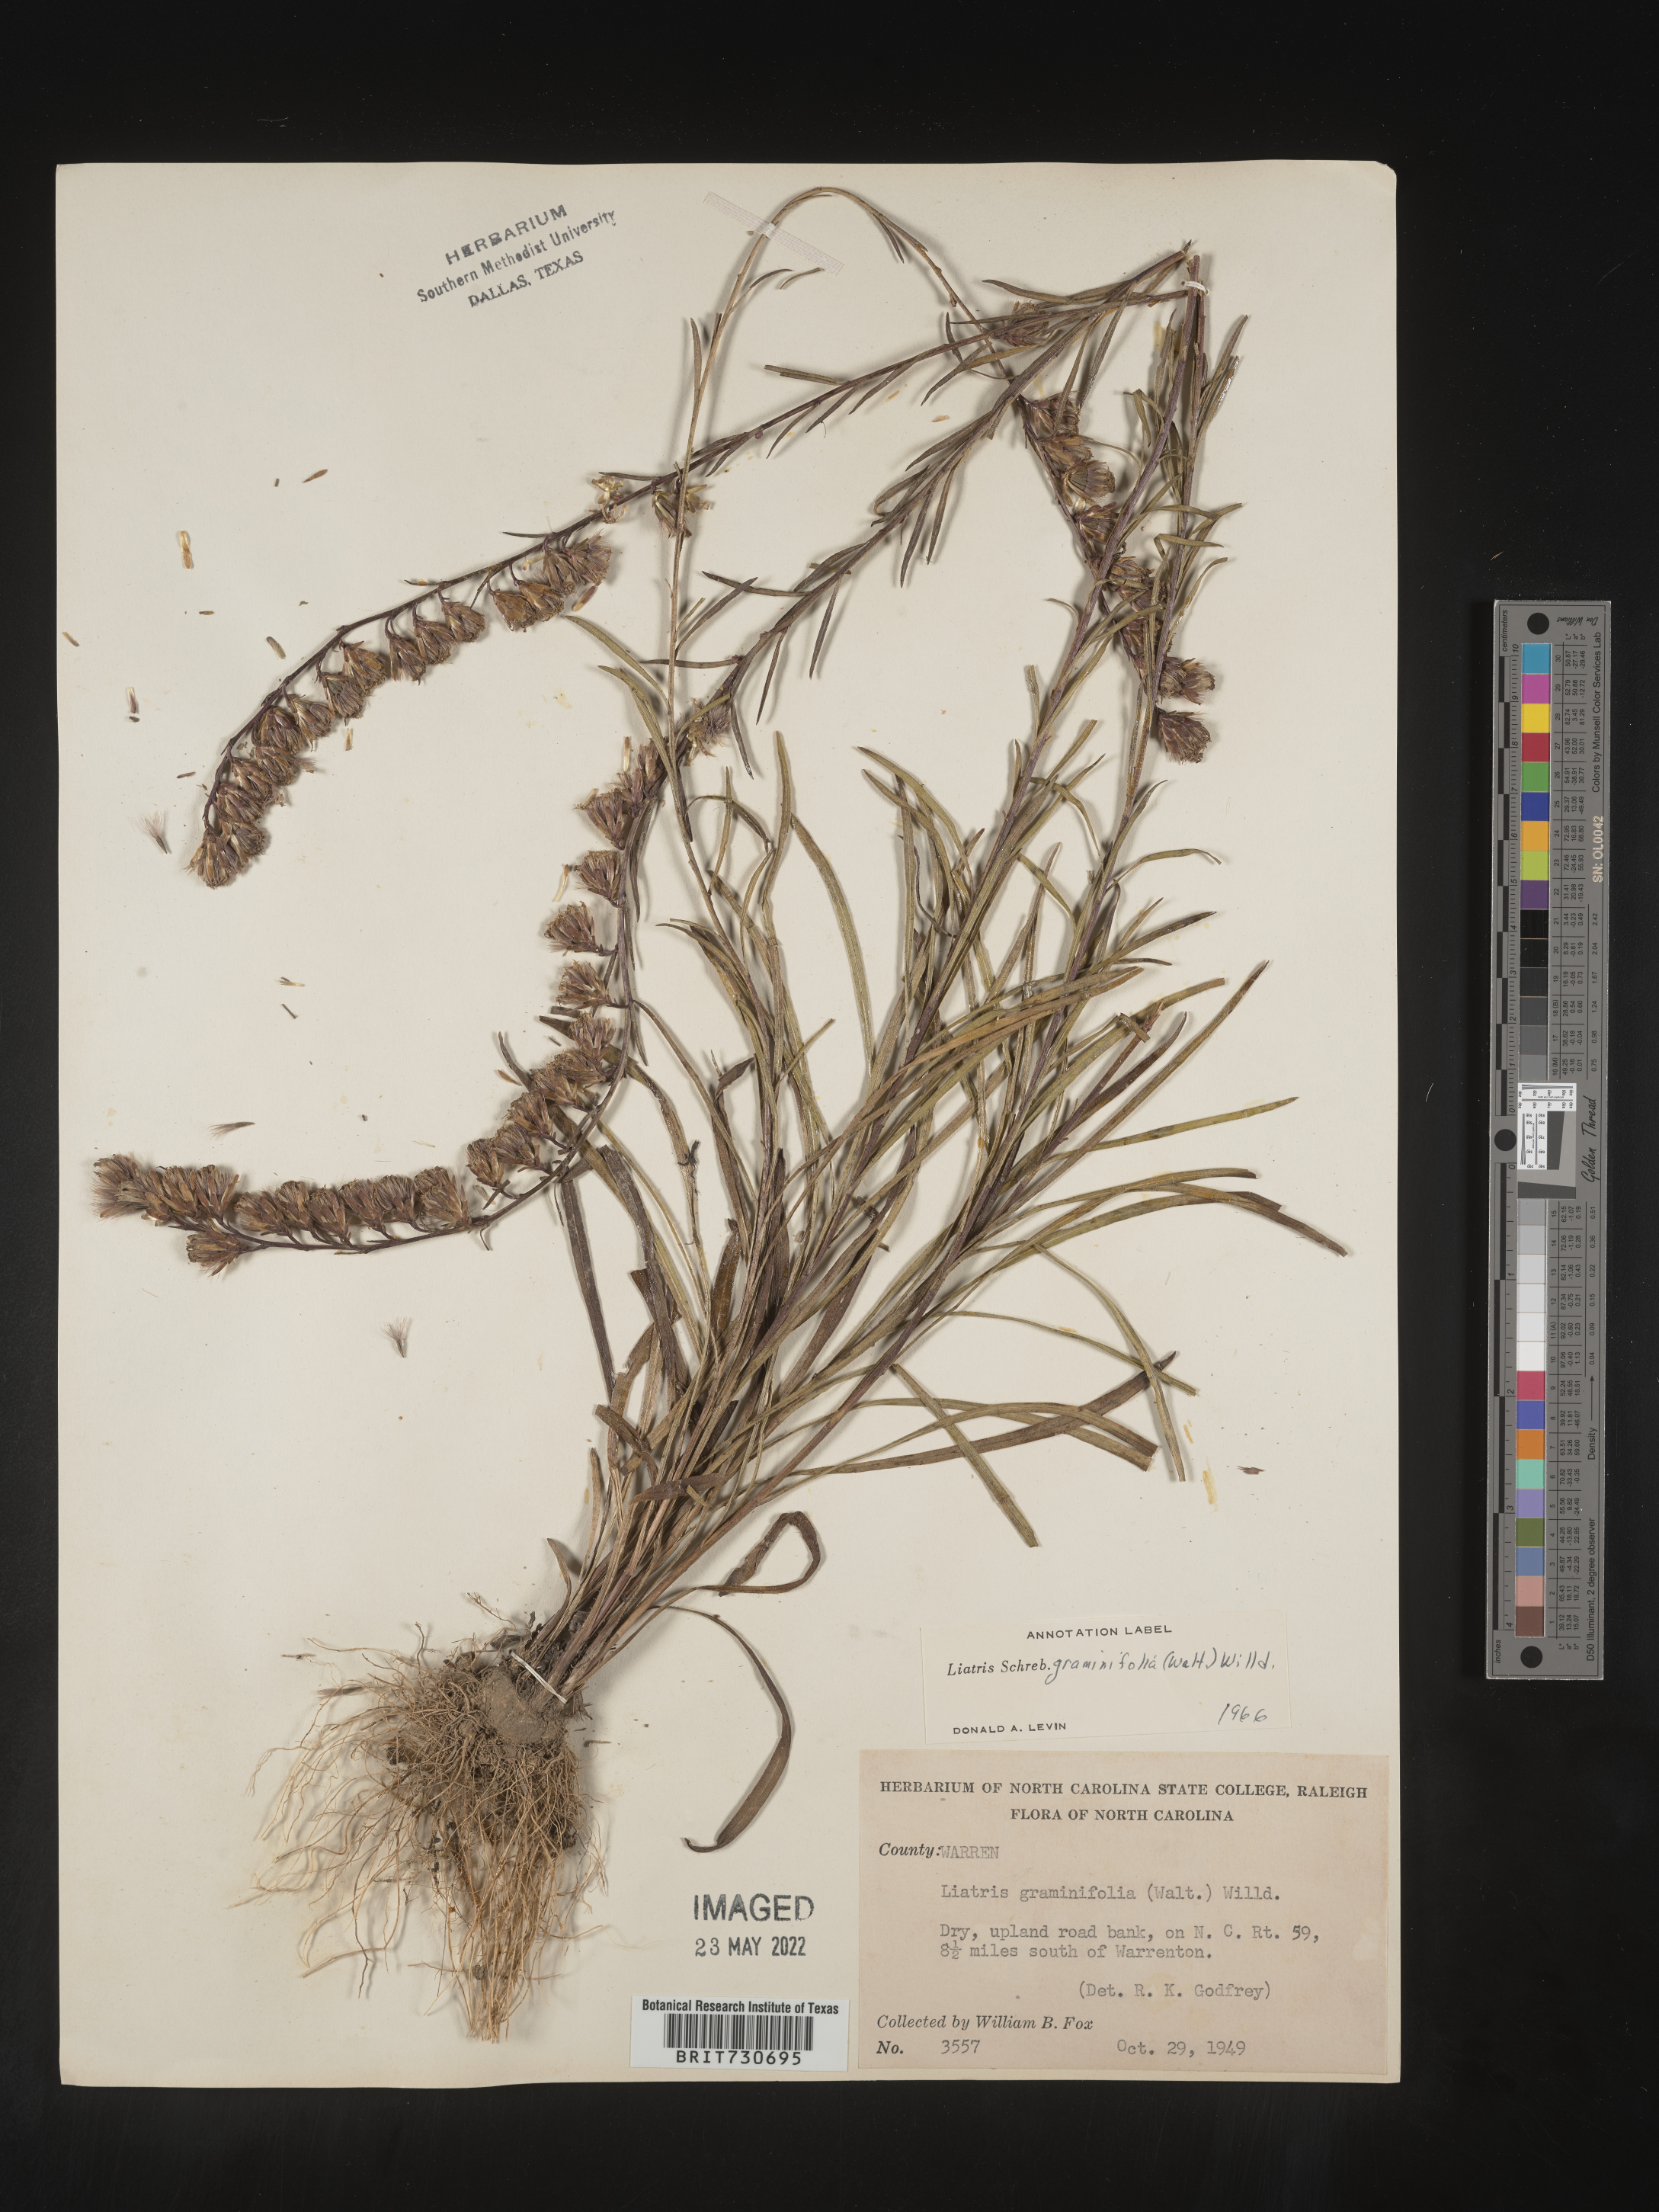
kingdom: Plantae
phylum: Tracheophyta
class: Magnoliopsida
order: Asterales
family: Asteraceae
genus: Liatris
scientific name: Liatris pilosa
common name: Grass-leaf gayfeather
